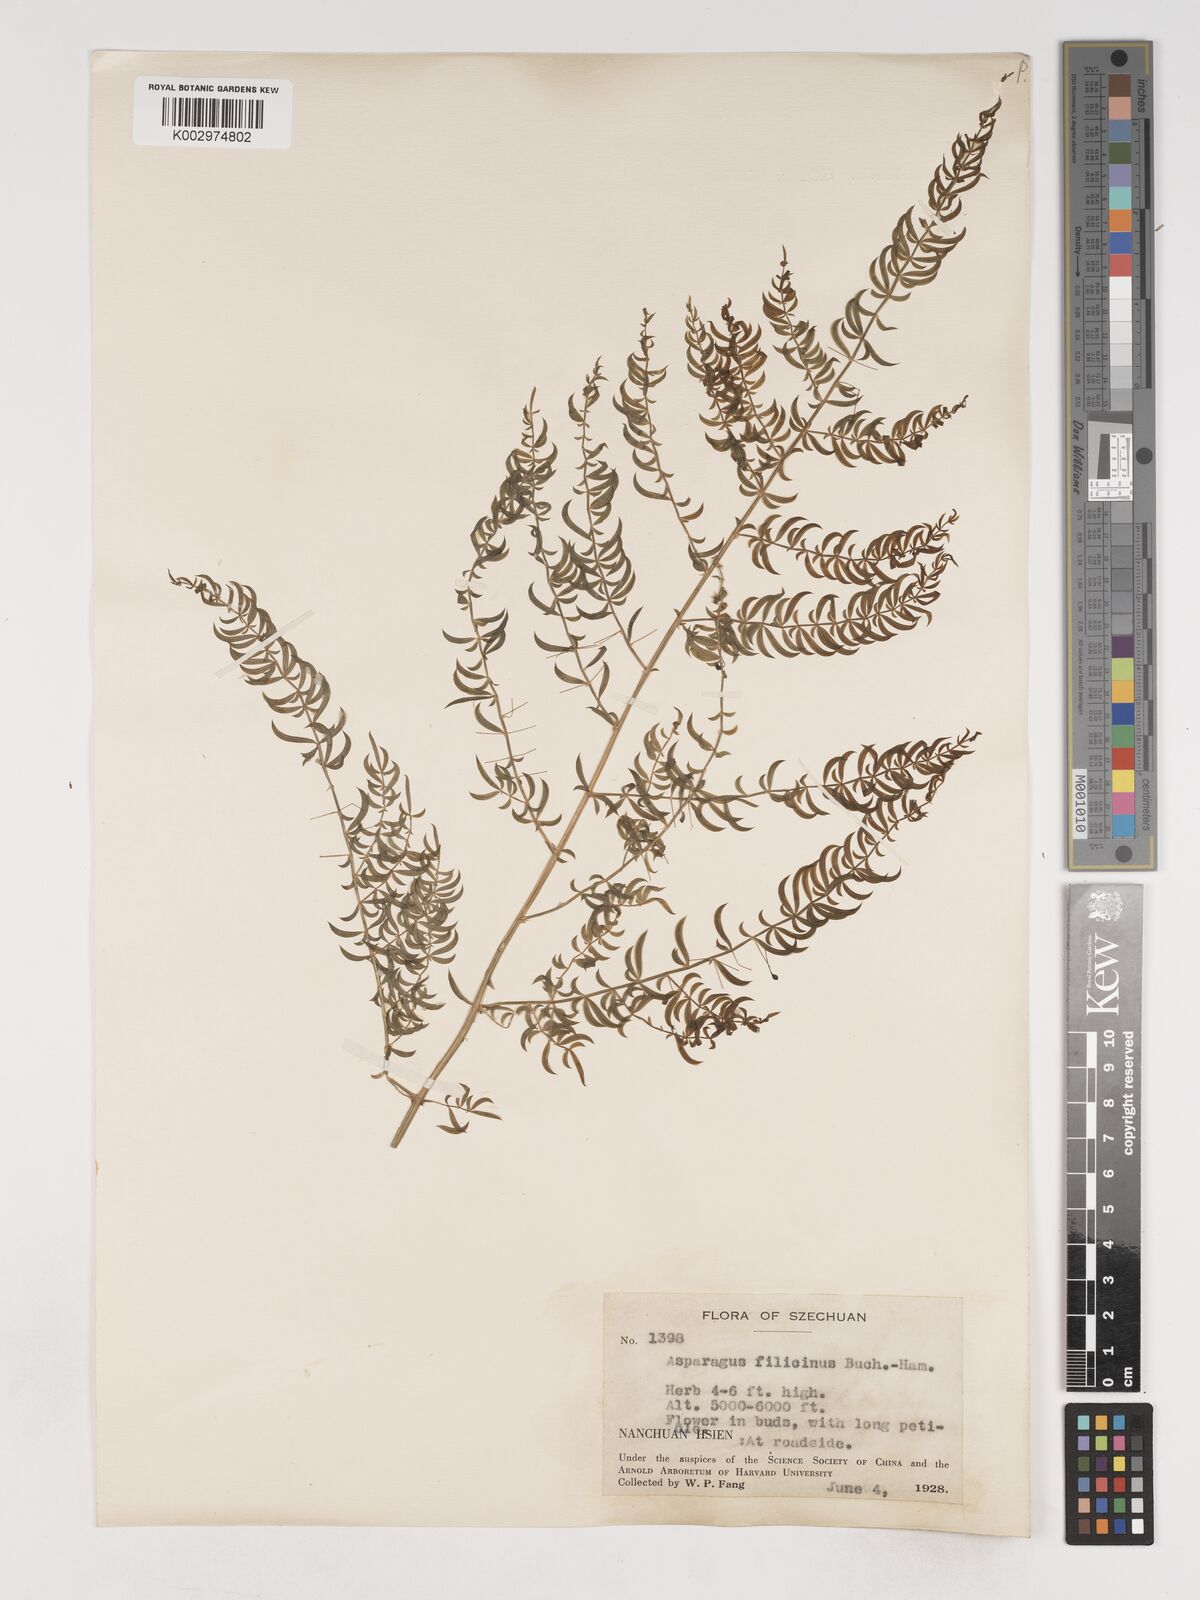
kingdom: Plantae
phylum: Tracheophyta
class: Liliopsida
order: Asparagales
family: Asparagaceae
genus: Asparagus
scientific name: Asparagus filicinus
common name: Fern asparagus
